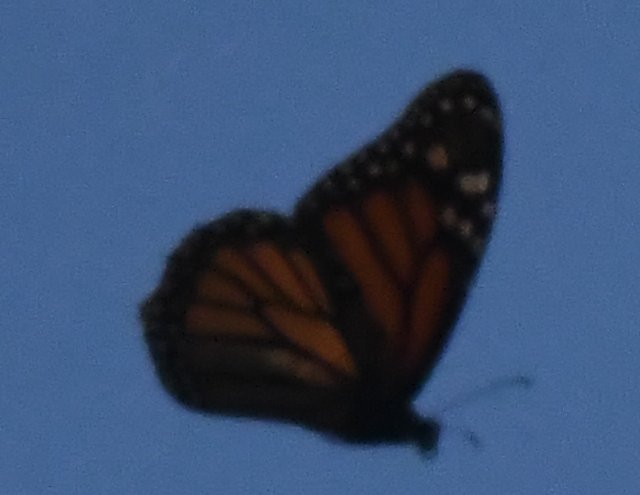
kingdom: Animalia
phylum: Arthropoda
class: Insecta
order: Lepidoptera
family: Nymphalidae
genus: Danaus
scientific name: Danaus plexippus
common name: Monarch
